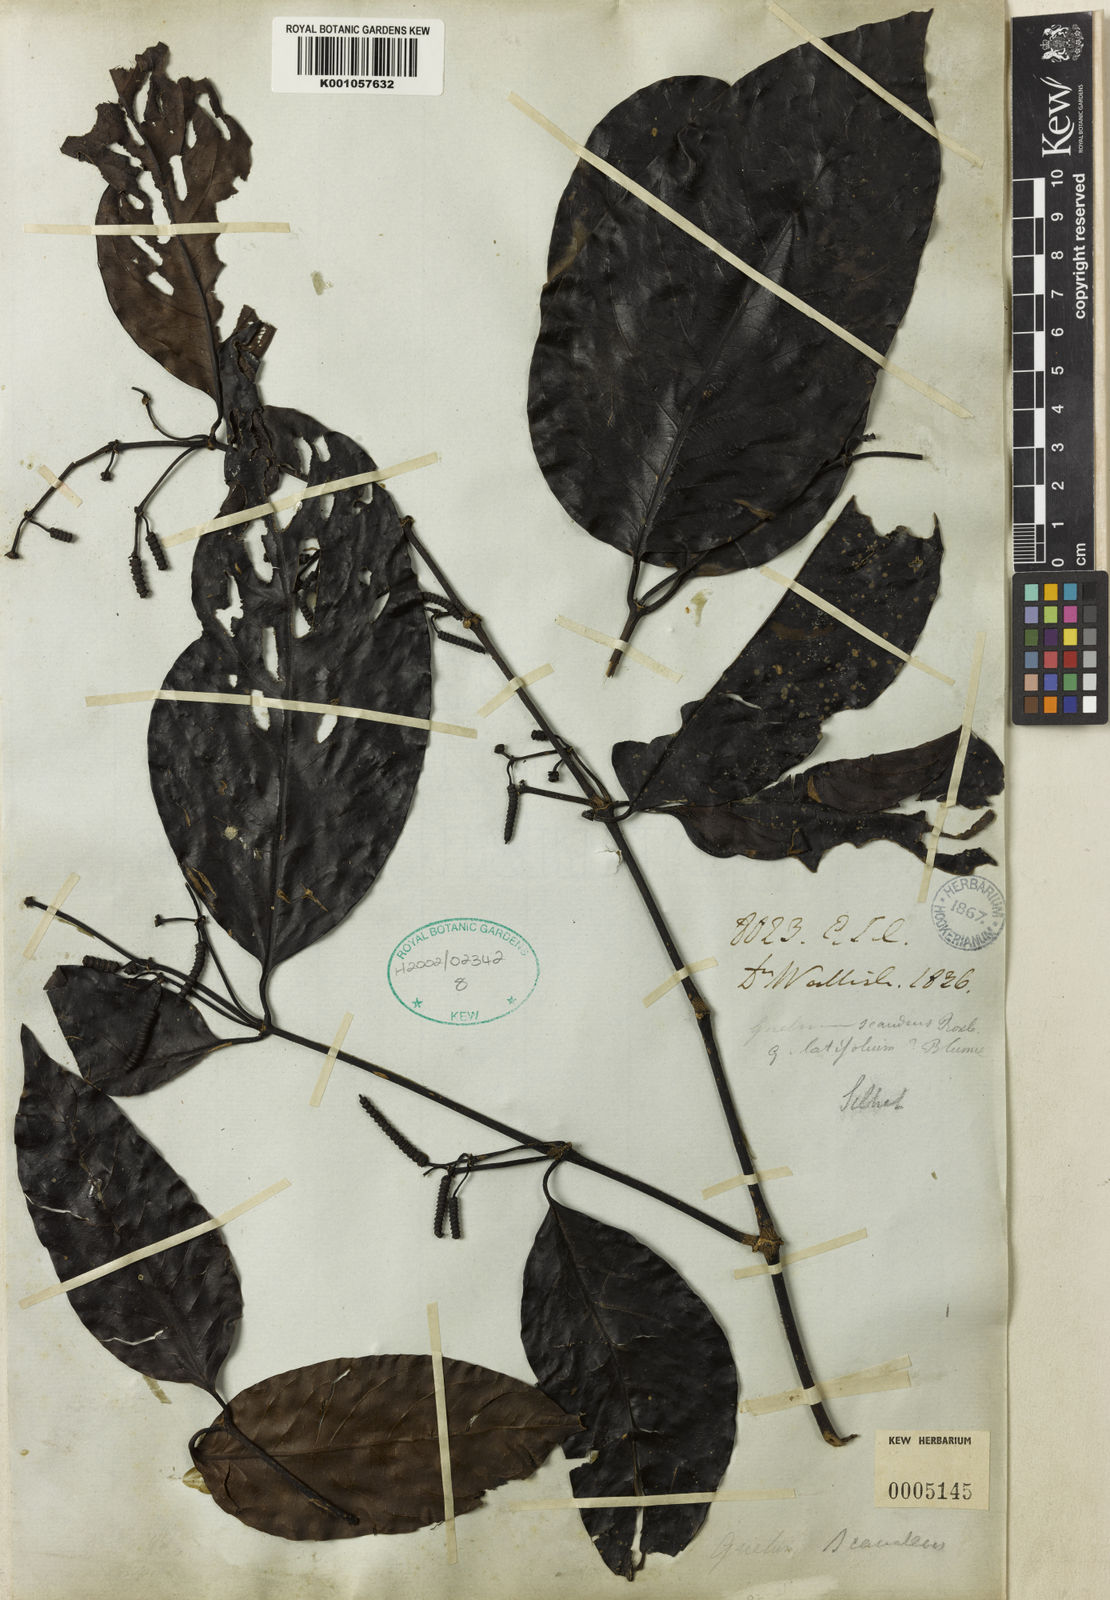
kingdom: Plantae
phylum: Tracheophyta
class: Gnetopsida
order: Gnetales
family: Gnetaceae
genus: Gnetum
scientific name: Gnetum edule
